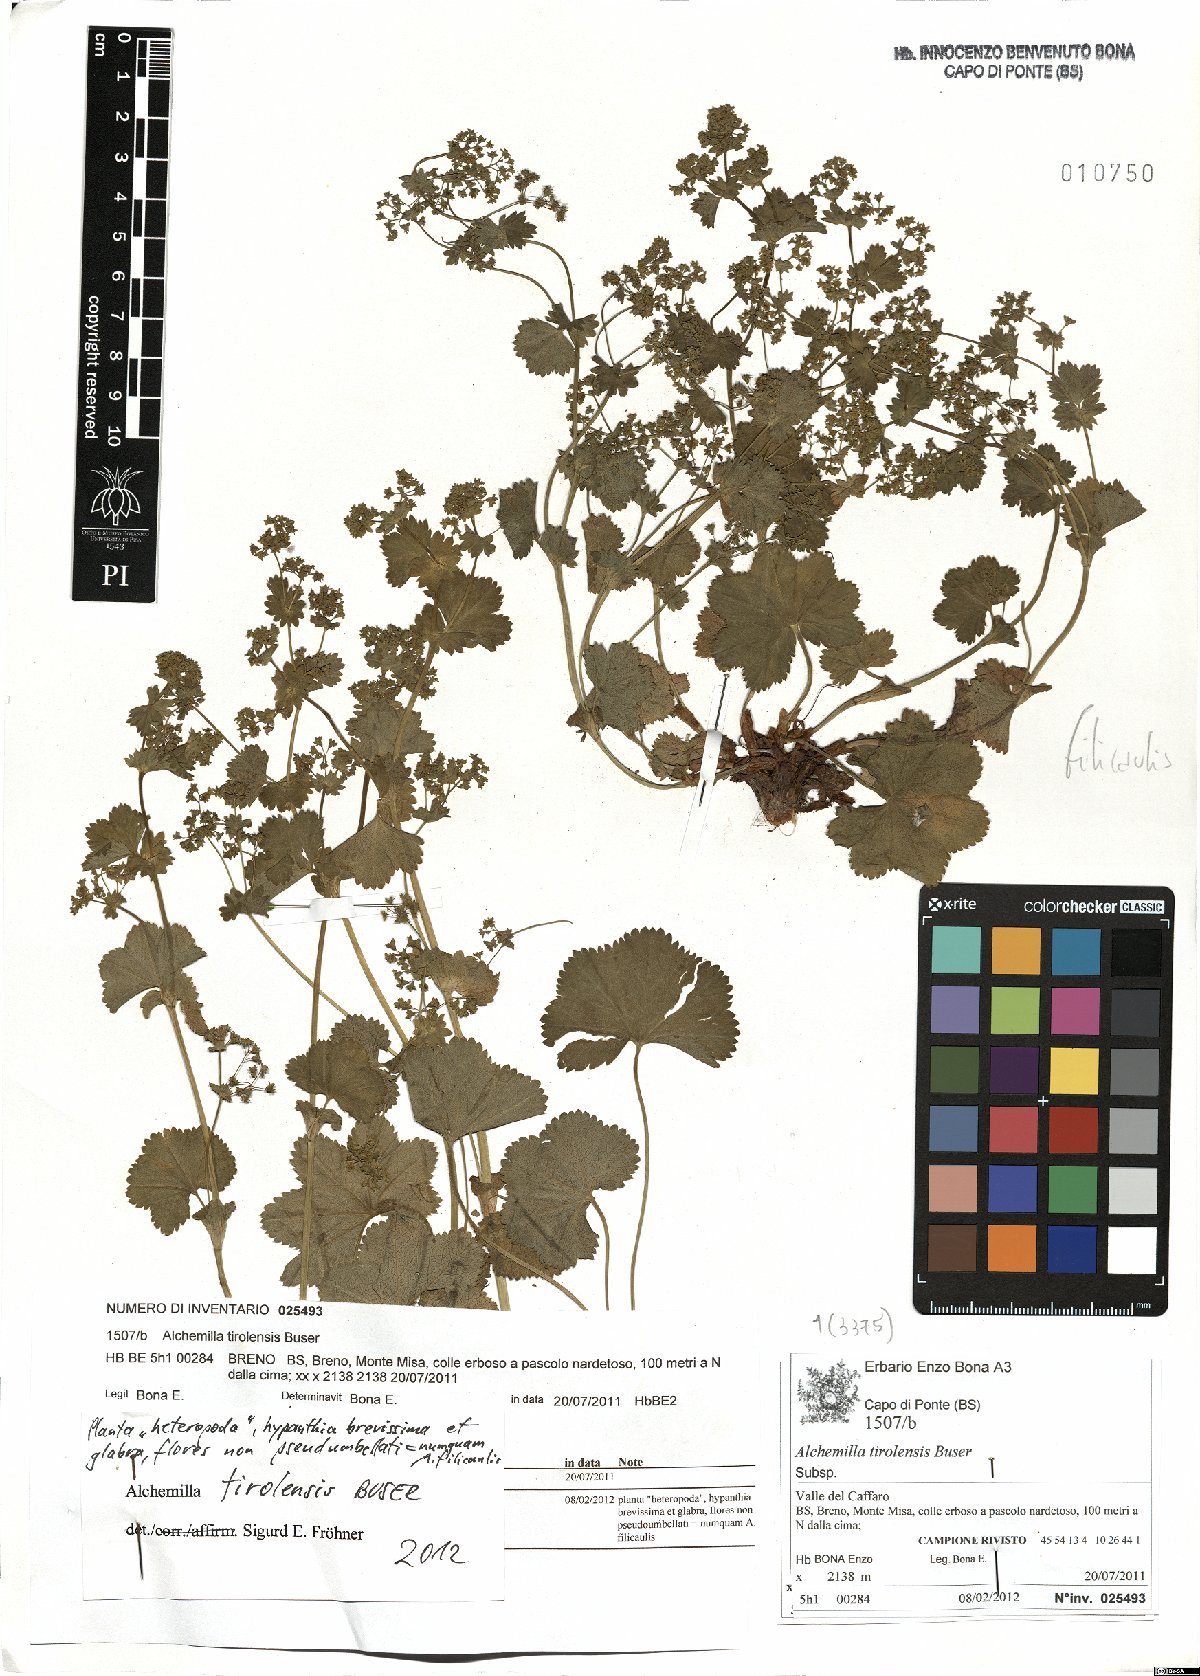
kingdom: Plantae
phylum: Tracheophyta
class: Magnoliopsida
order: Rosales
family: Rosaceae
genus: Alchemilla
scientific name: Alchemilla tirolensis
